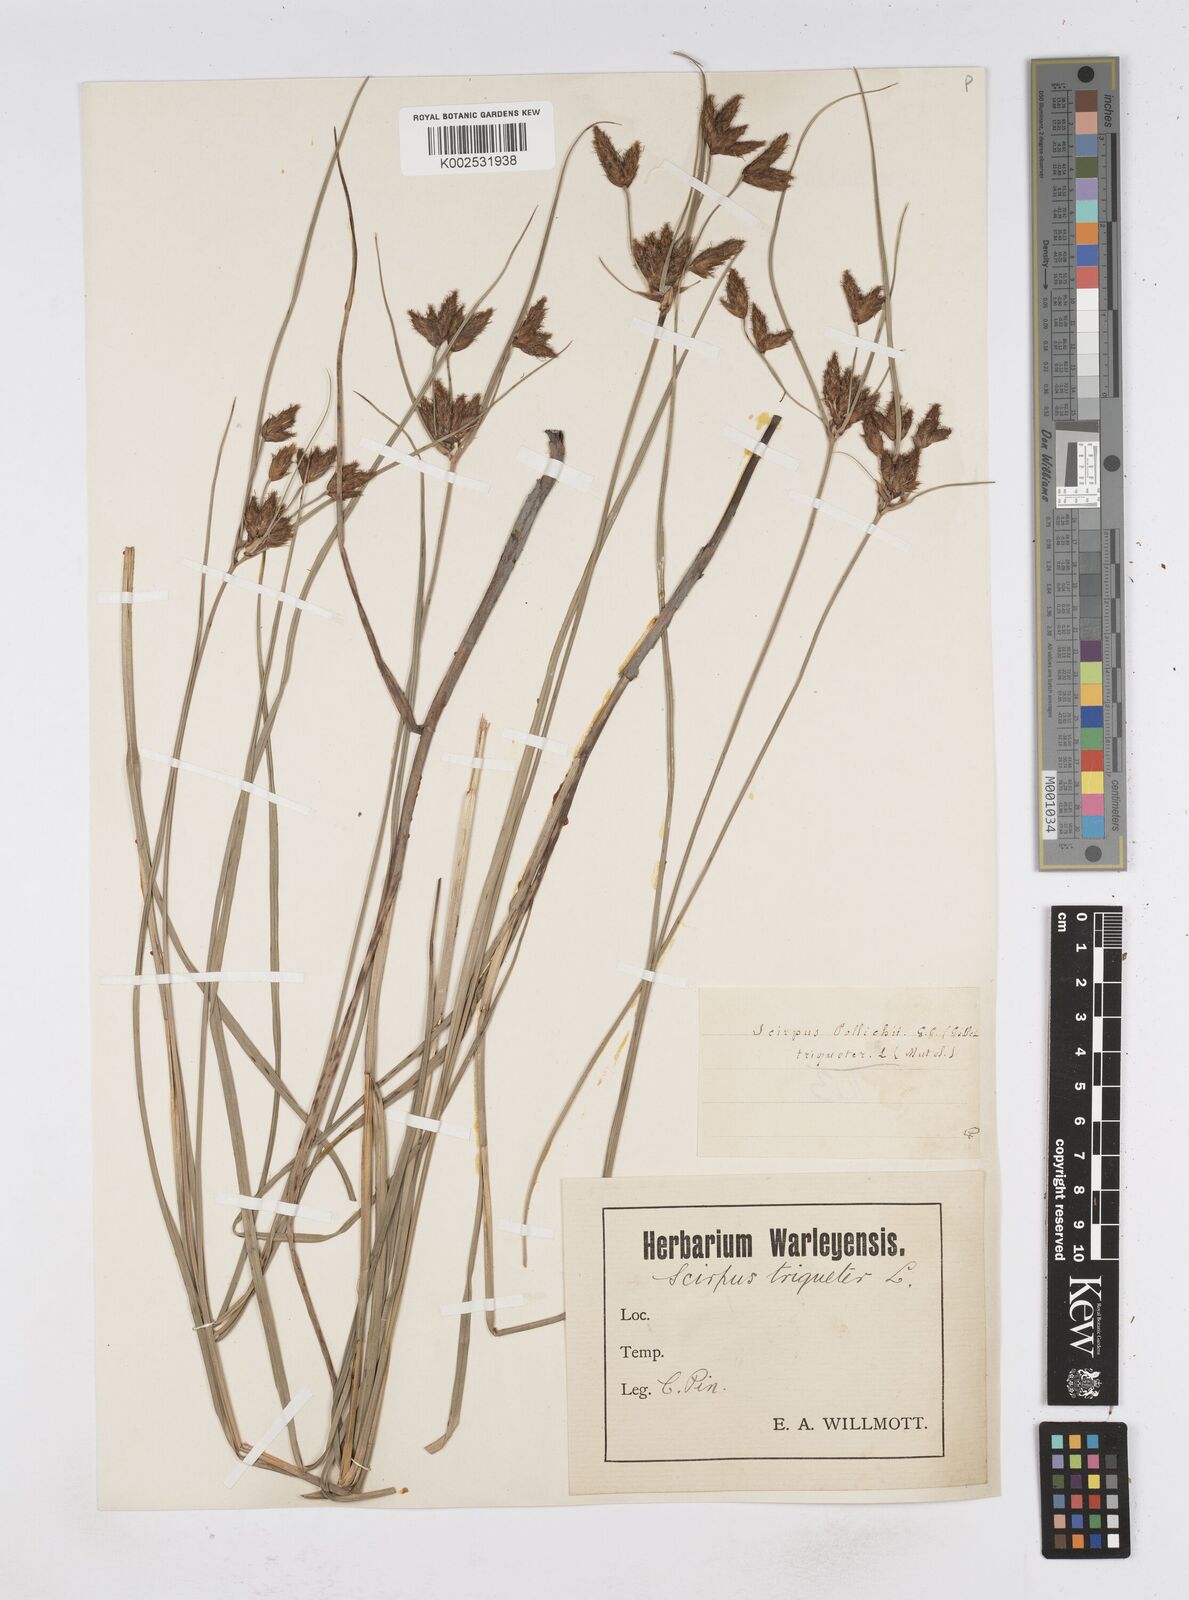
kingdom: Plantae
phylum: Tracheophyta
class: Liliopsida
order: Poales
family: Cyperaceae
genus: Bolboschoenus
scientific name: Bolboschoenus maritimus
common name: Sea club-rush
